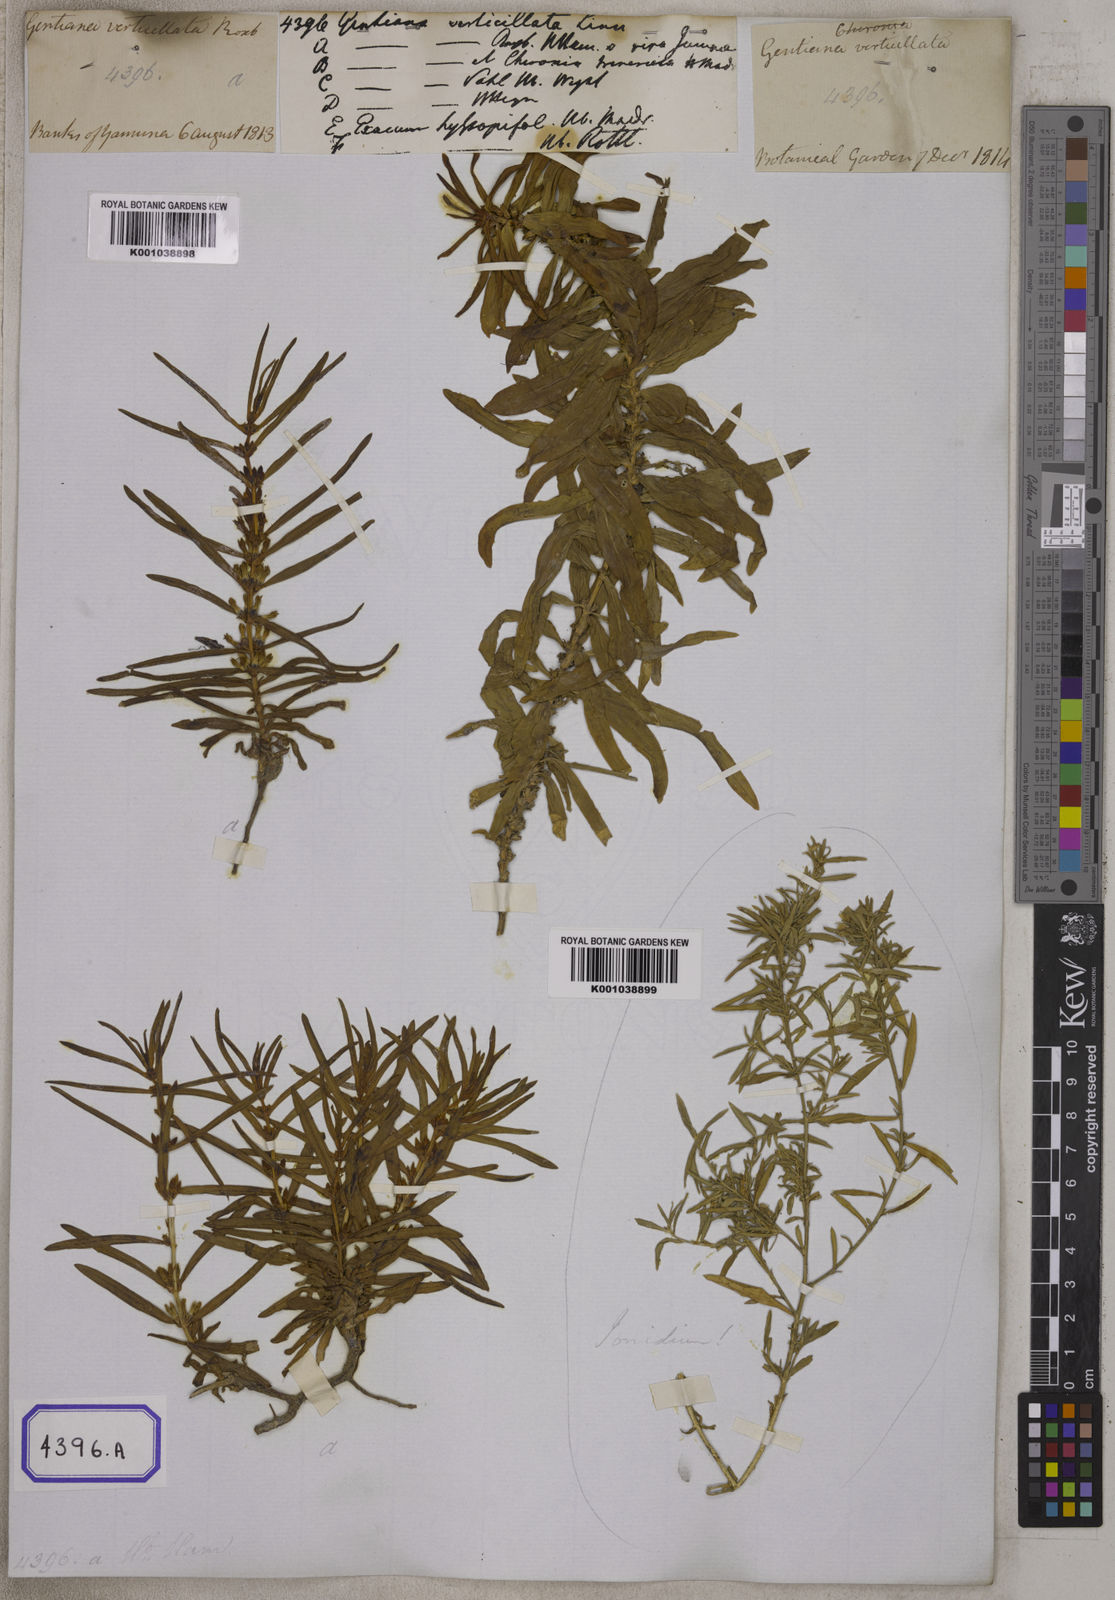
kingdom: Plantae
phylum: Tracheophyta
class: Magnoliopsida
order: Gentianales
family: Gentianaceae
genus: Enicostema
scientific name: Enicostema verticillatum
